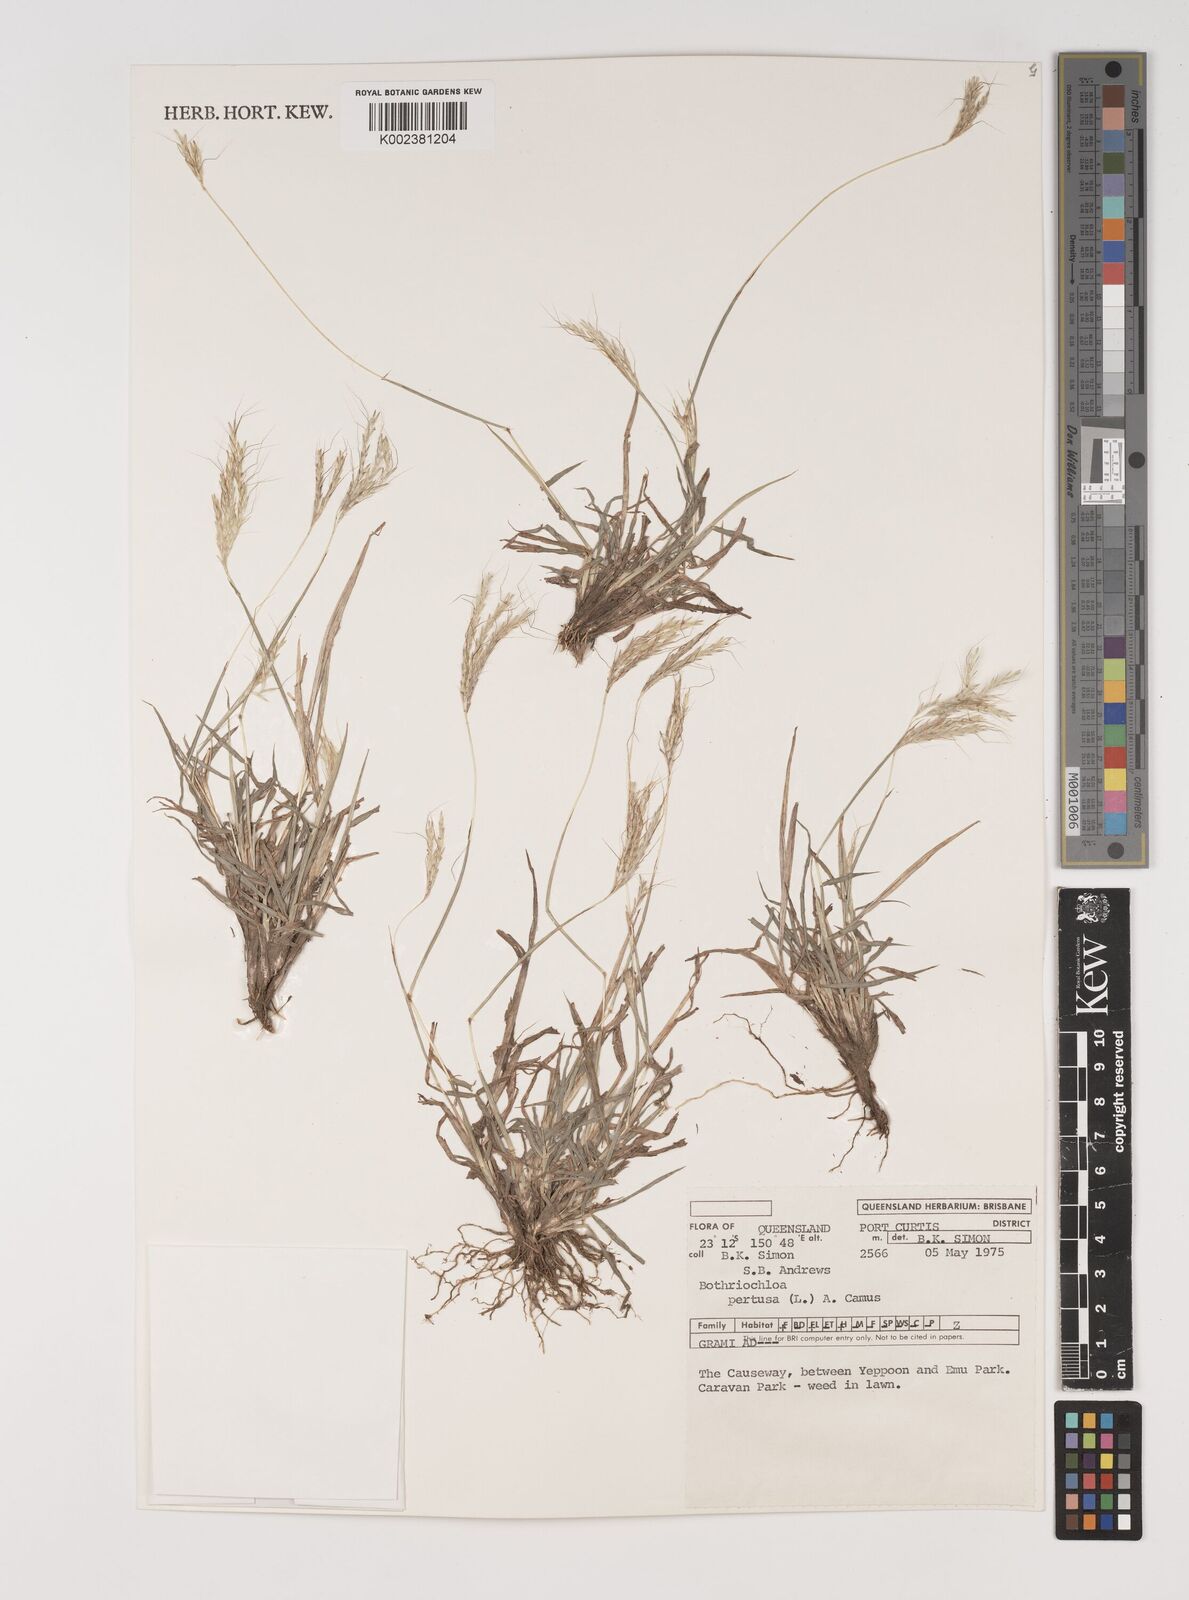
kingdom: Plantae
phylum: Tracheophyta
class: Liliopsida
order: Poales
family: Poaceae
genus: Bothriochloa
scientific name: Bothriochloa pertusa
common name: Pitted beardgrass
